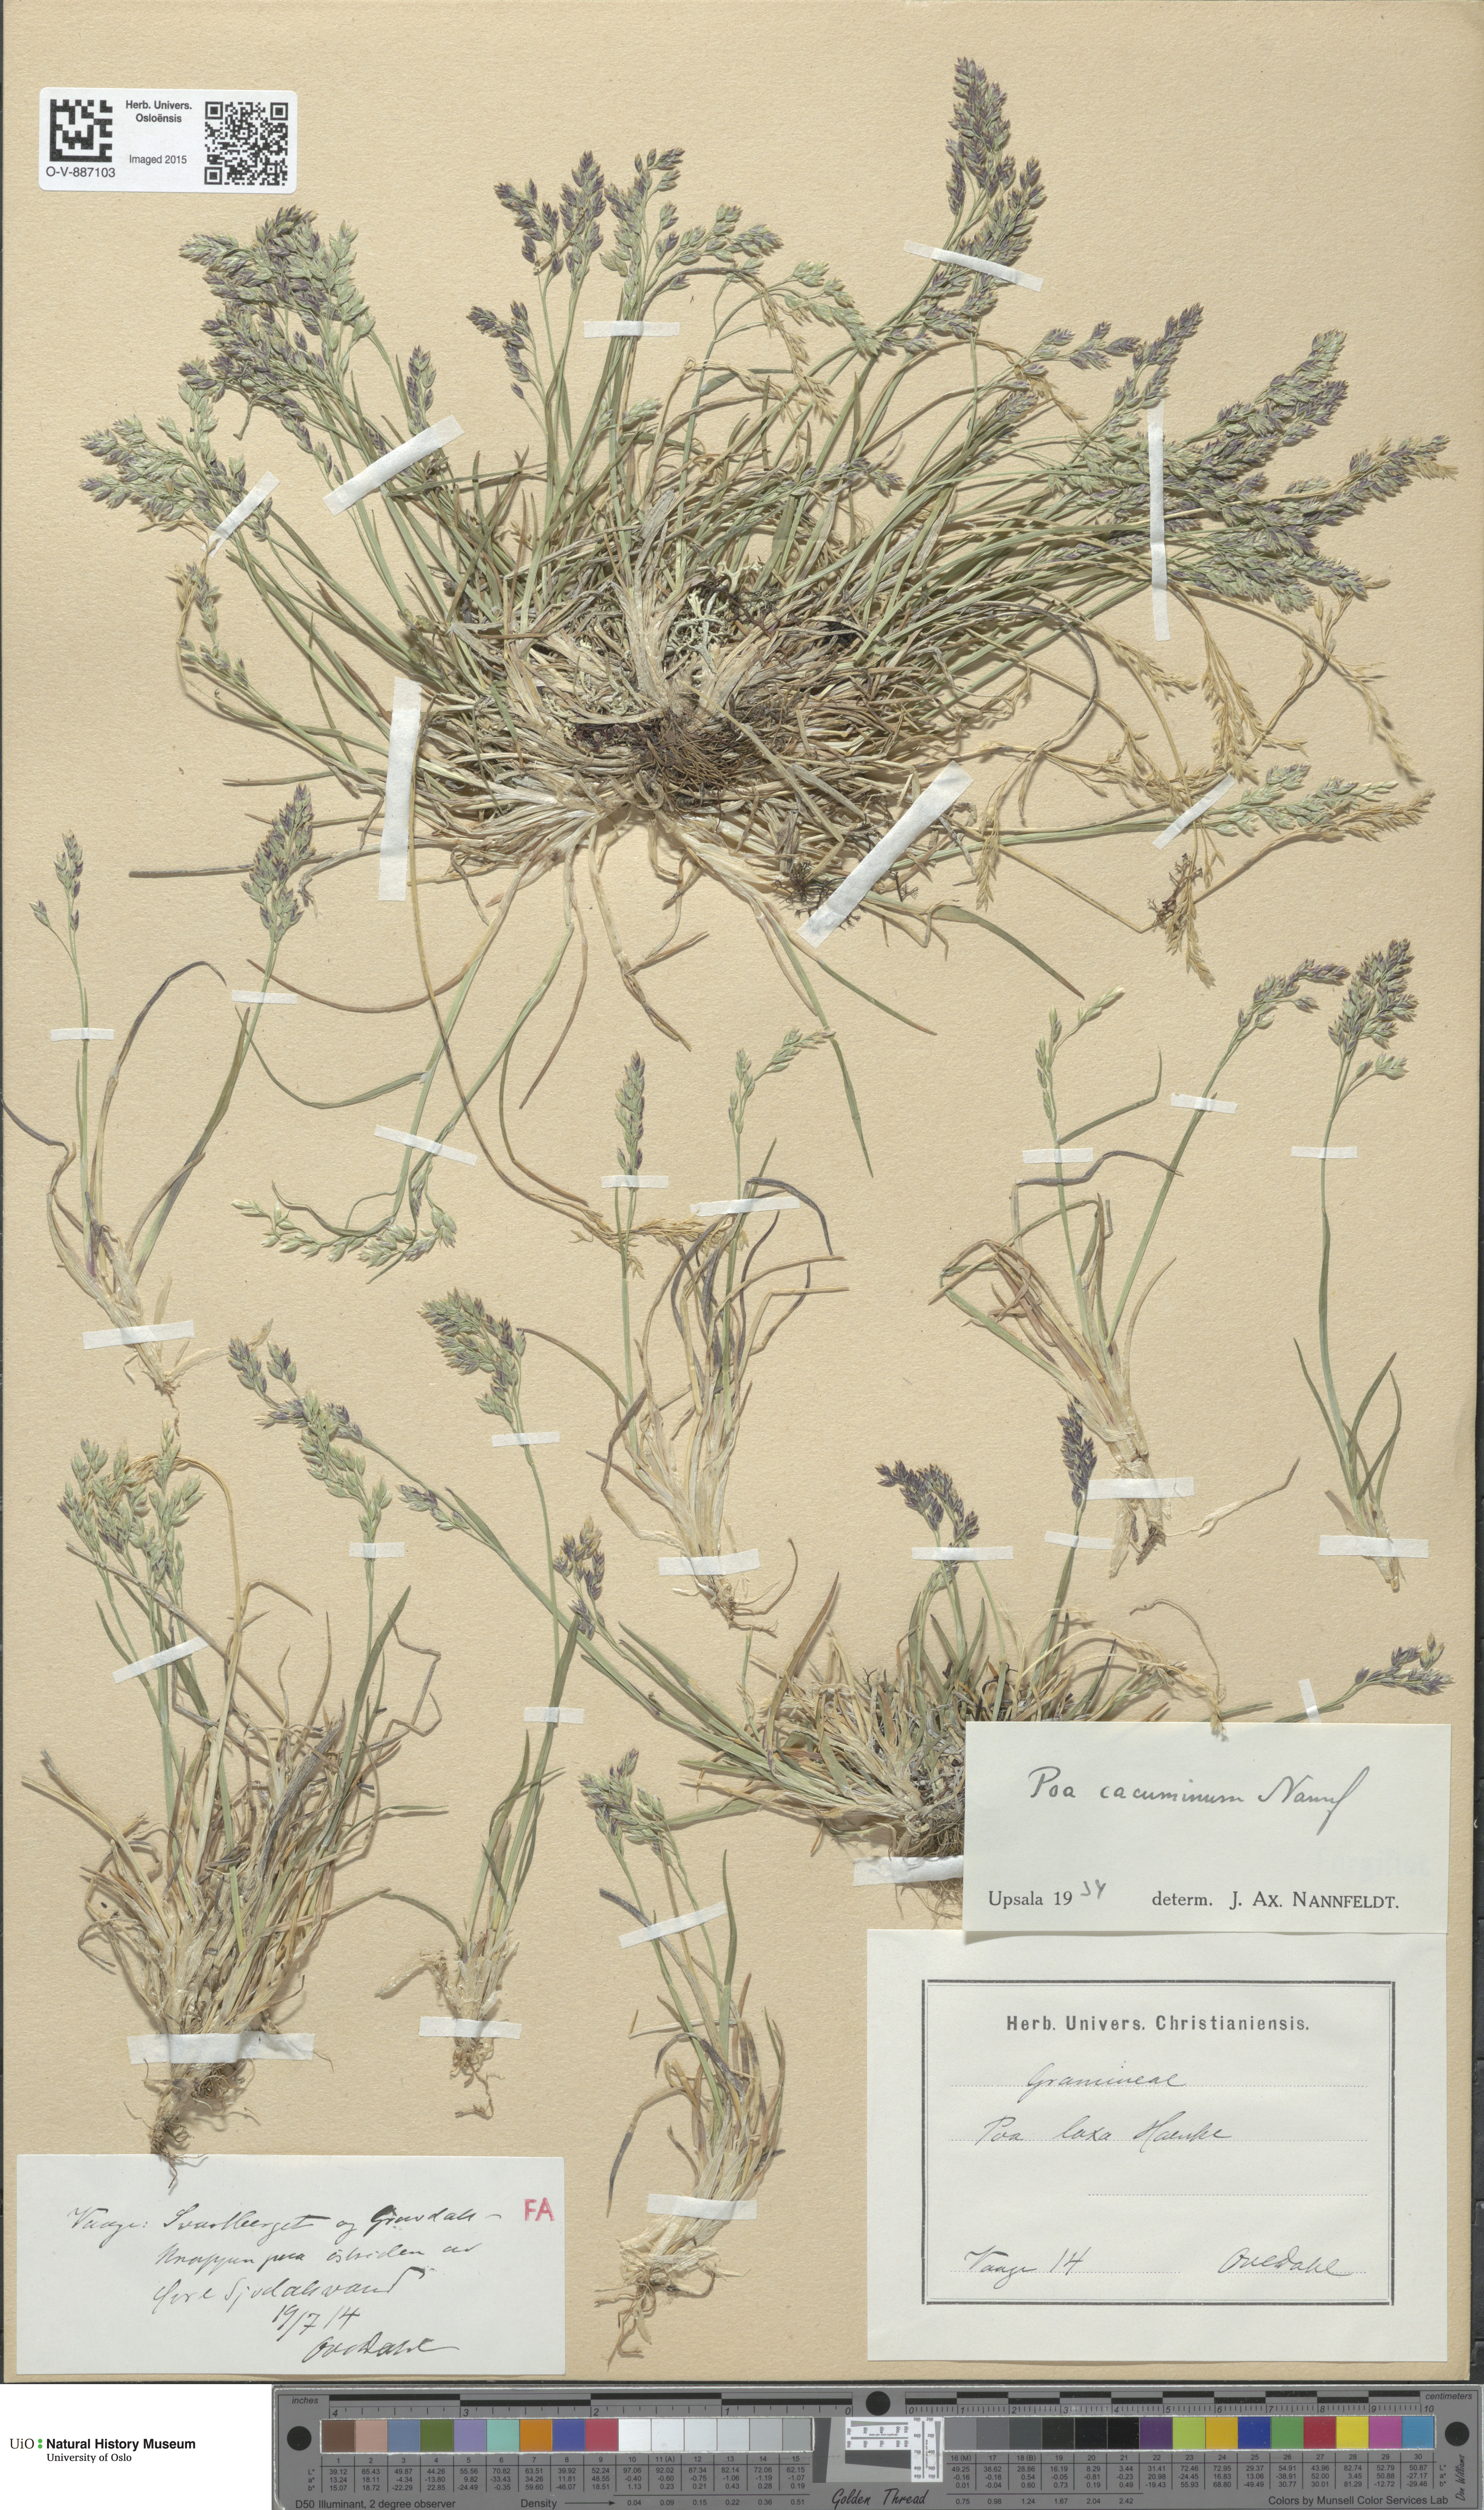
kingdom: Plantae
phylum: Tracheophyta
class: Liliopsida
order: Poales
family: Poaceae
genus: Poa
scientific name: Poa flexuosa
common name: Wavy meadow-grass
